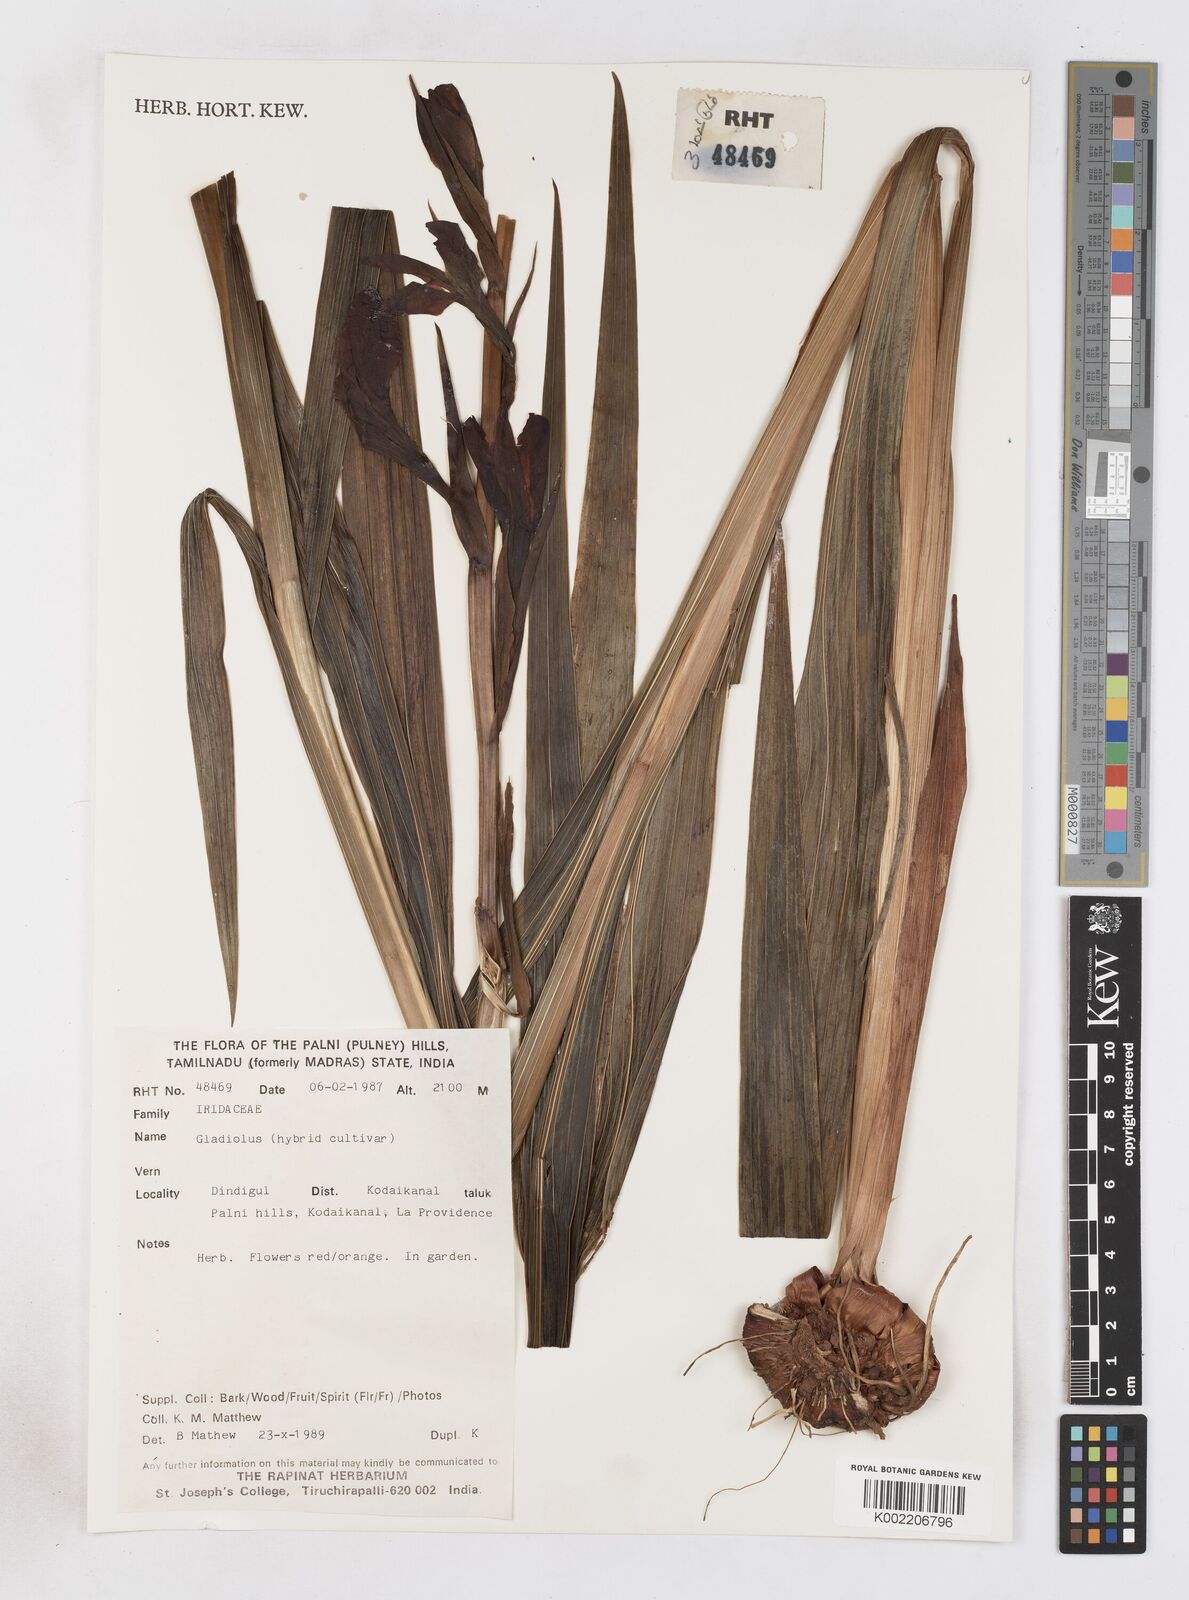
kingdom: Plantae
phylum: Tracheophyta
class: Liliopsida
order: Asparagales
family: Iridaceae
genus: Gladiolus
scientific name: Gladiolus
